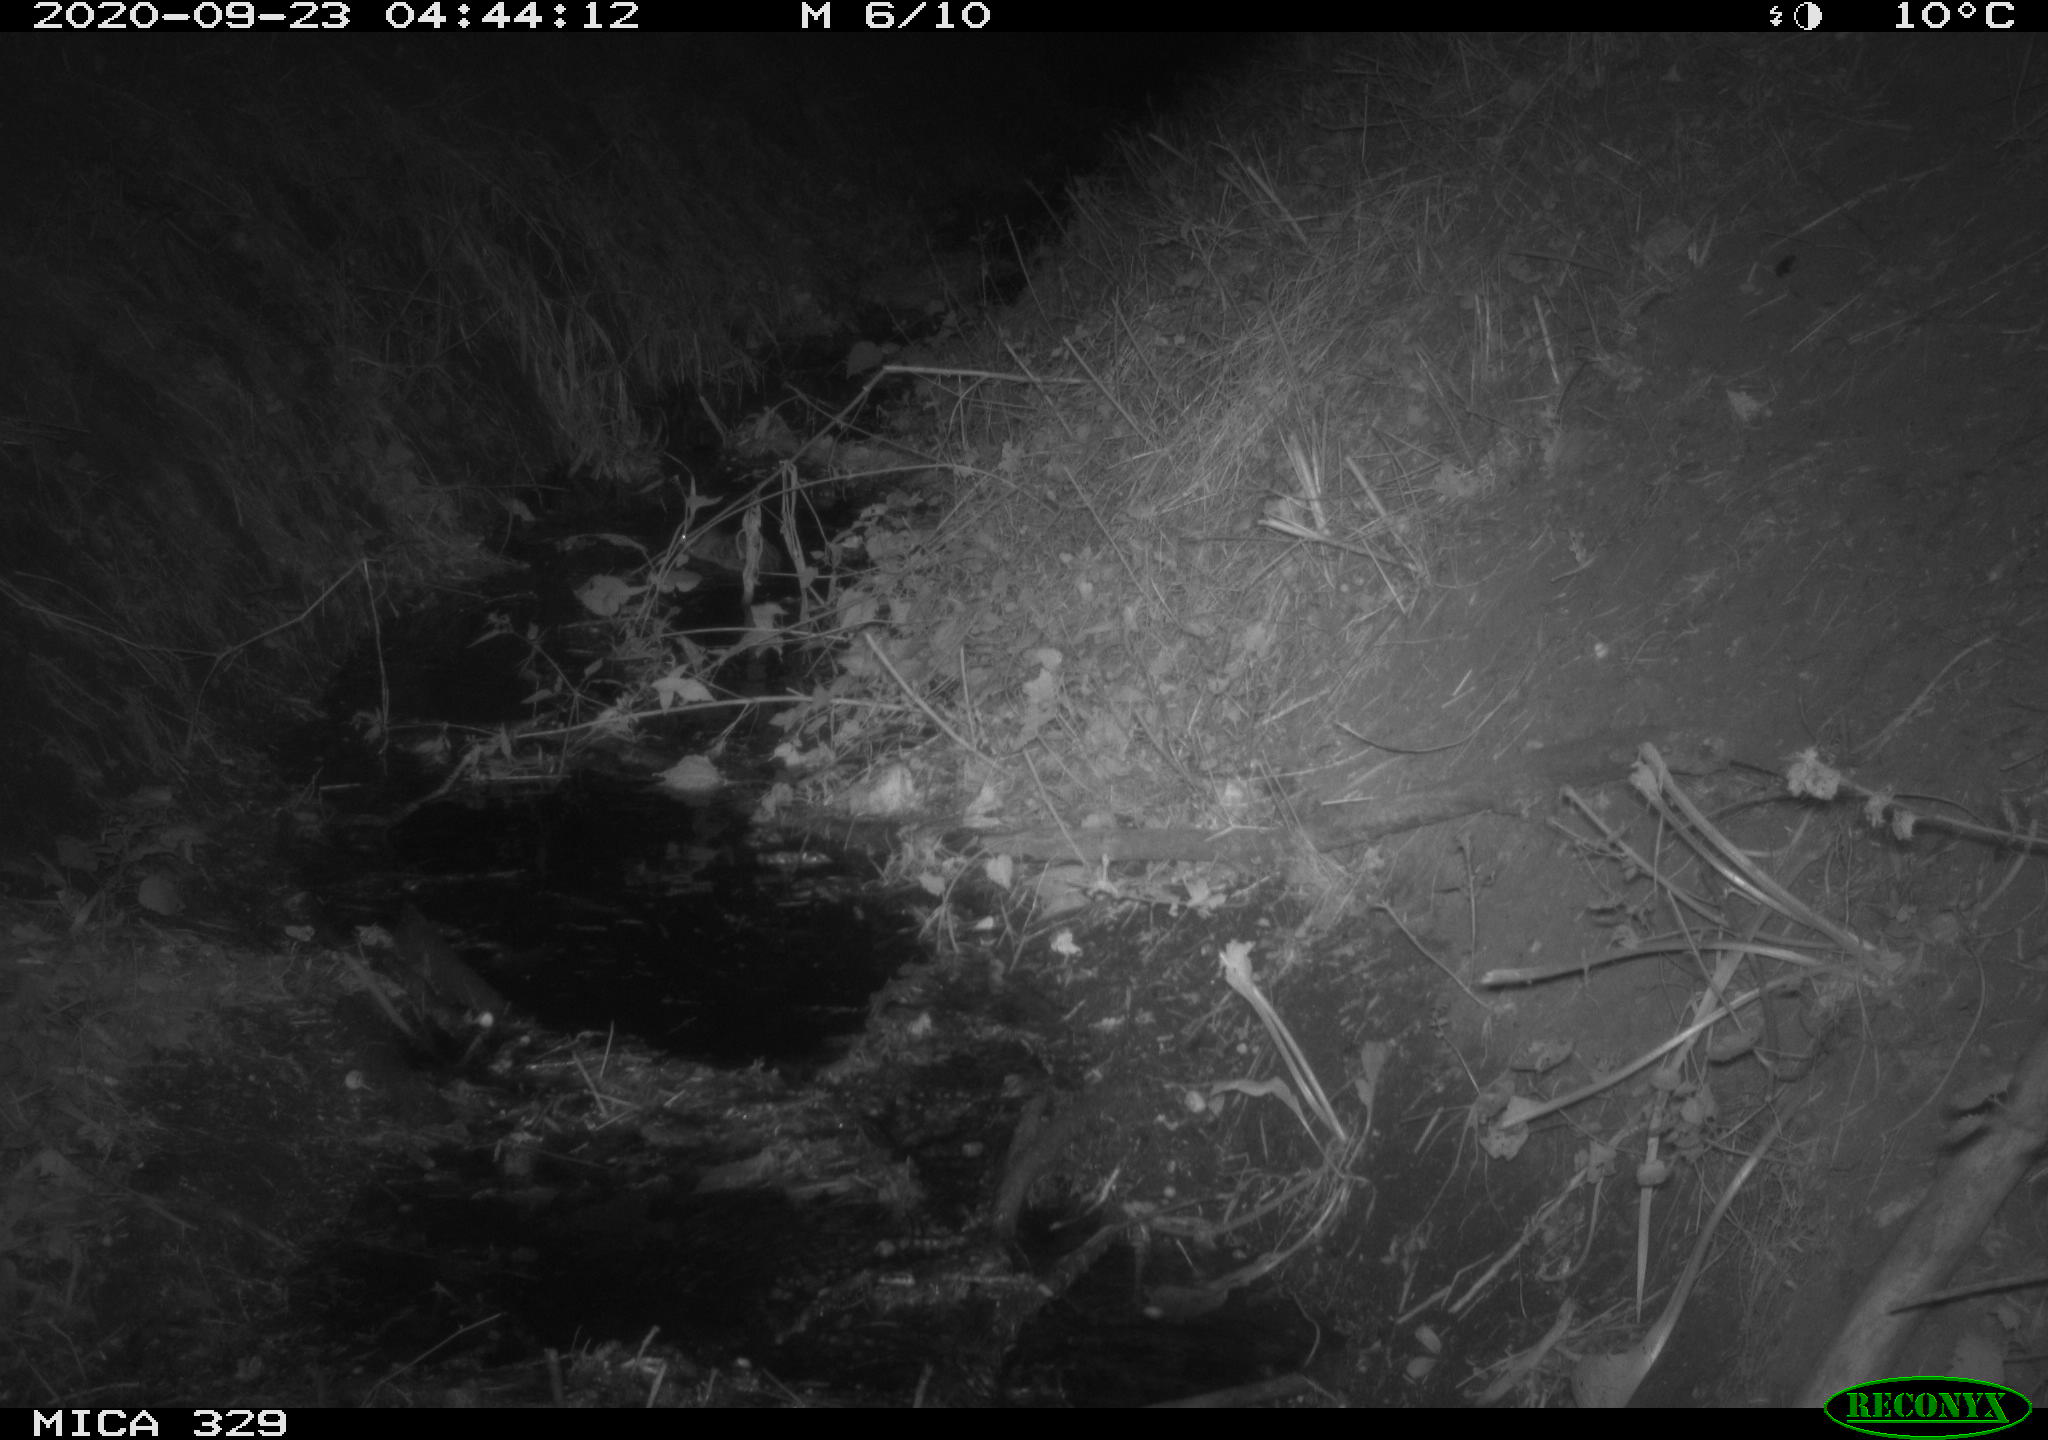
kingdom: Animalia
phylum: Chordata
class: Mammalia
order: Rodentia
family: Cricetidae
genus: Ondatra
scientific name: Ondatra zibethicus
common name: Muskrat
